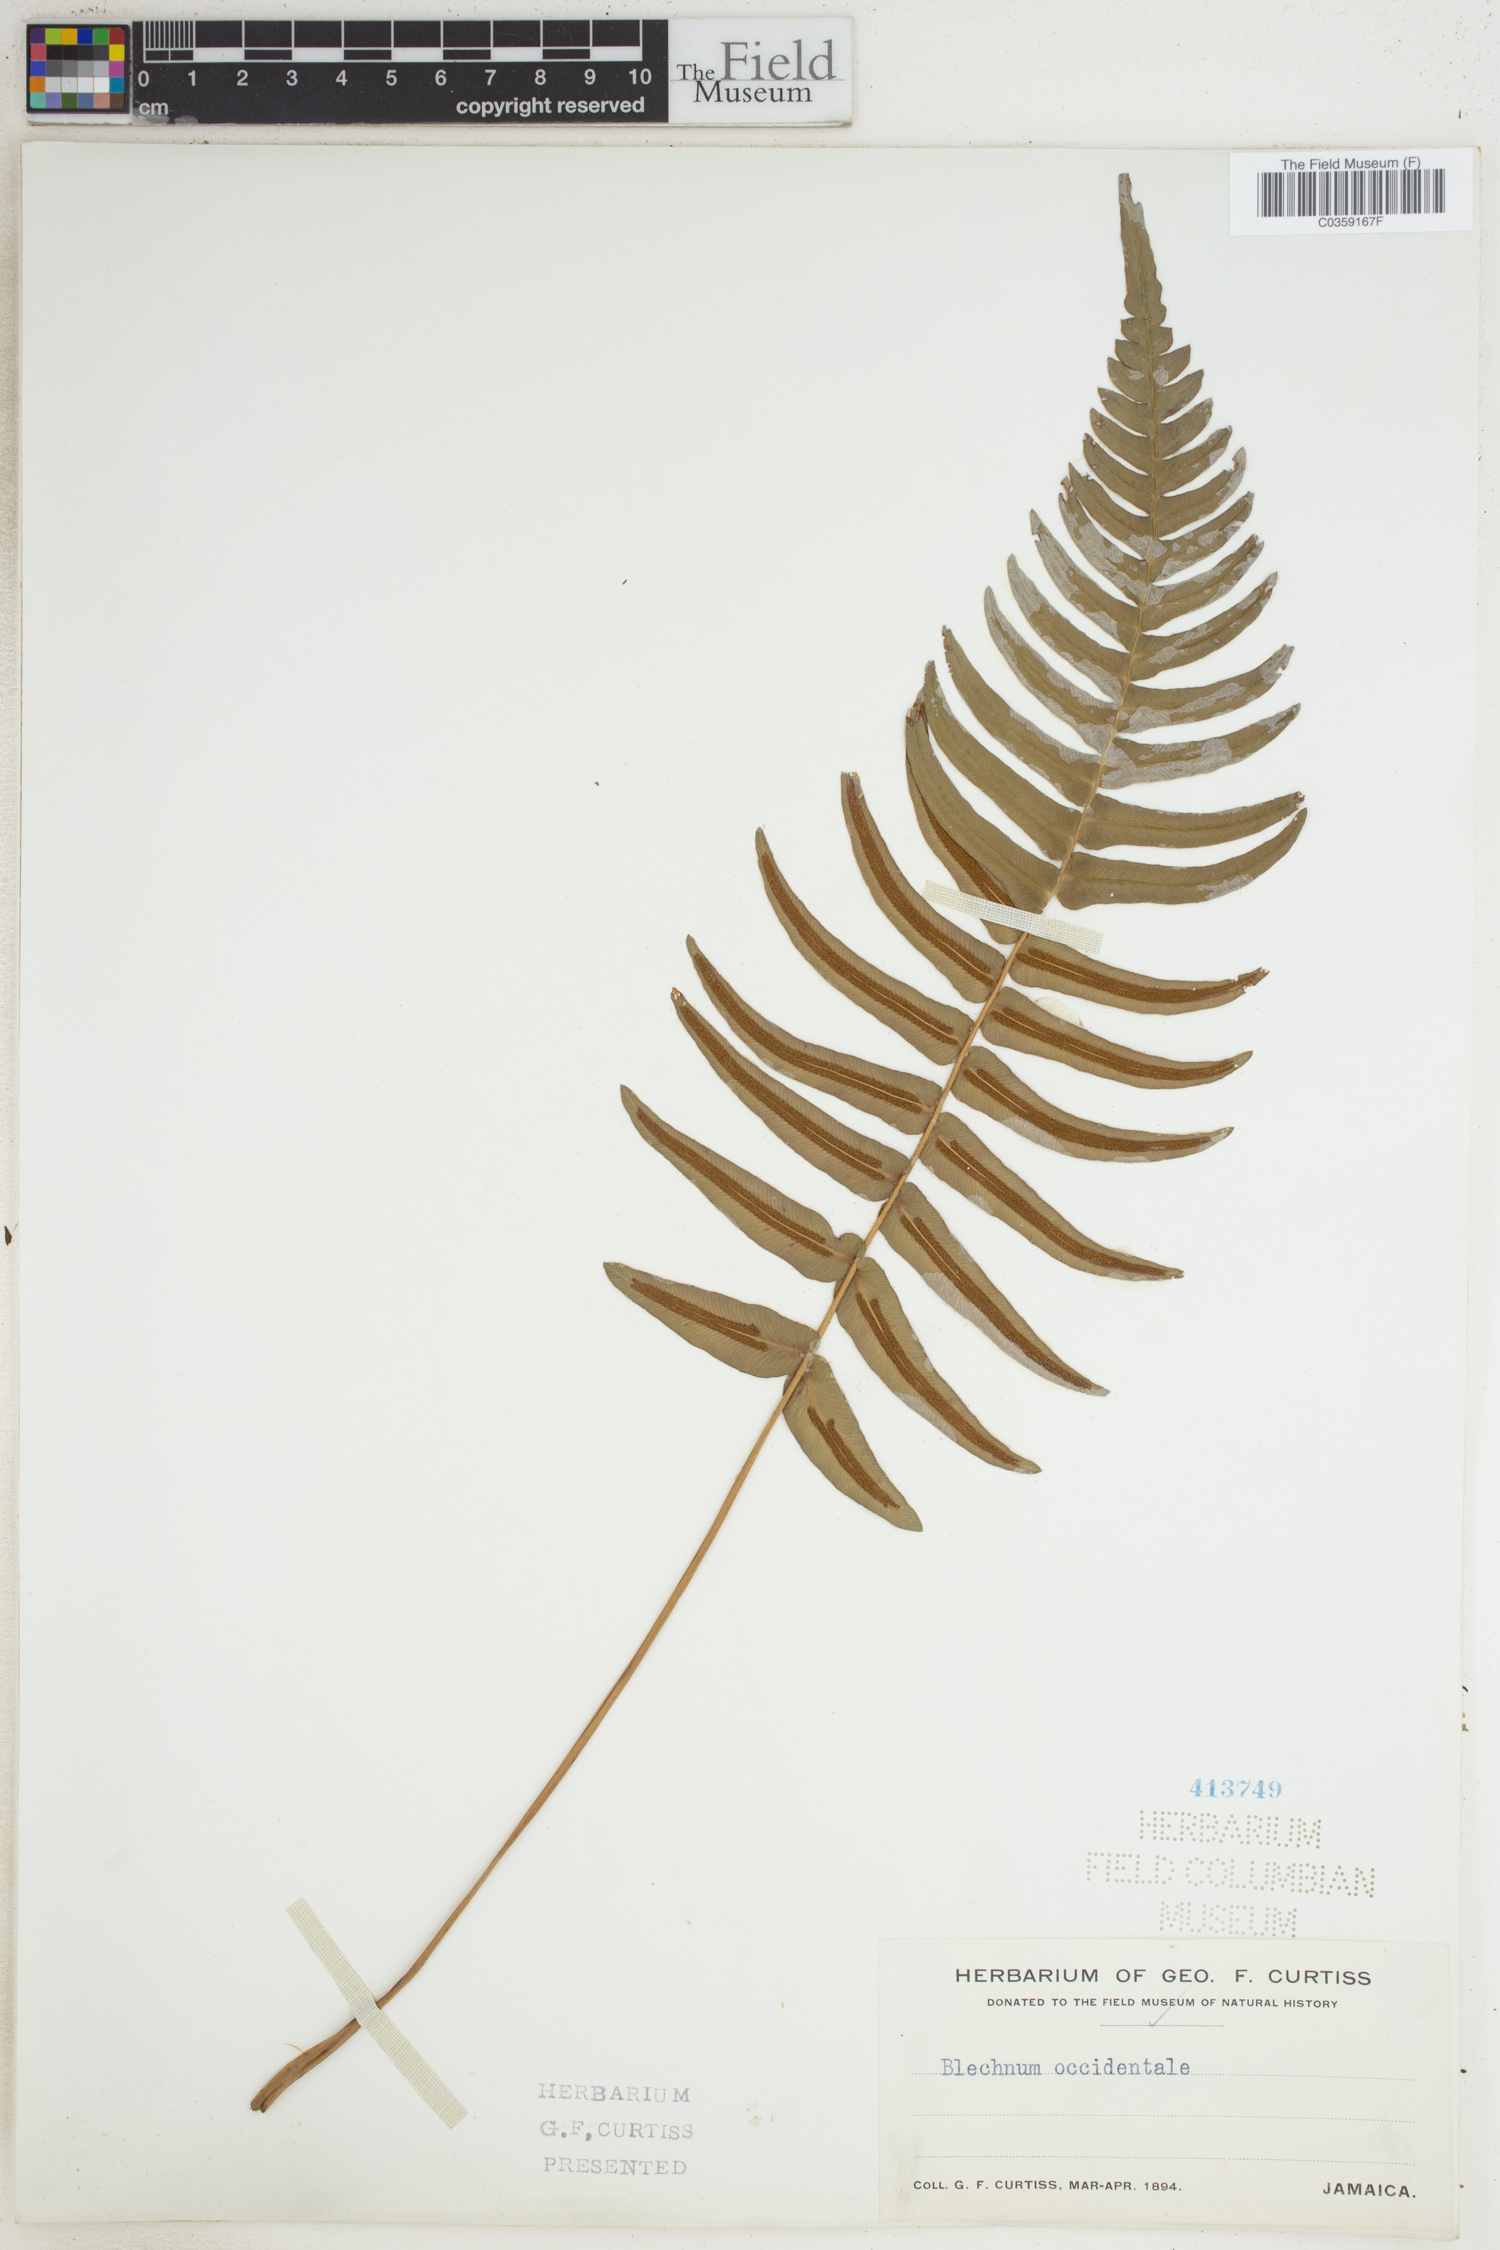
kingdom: Plantae
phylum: Tracheophyta
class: Polypodiopsida
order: Polypodiales
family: Blechnaceae
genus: Blechnum
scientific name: Blechnum occidentale
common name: Hammock fern
